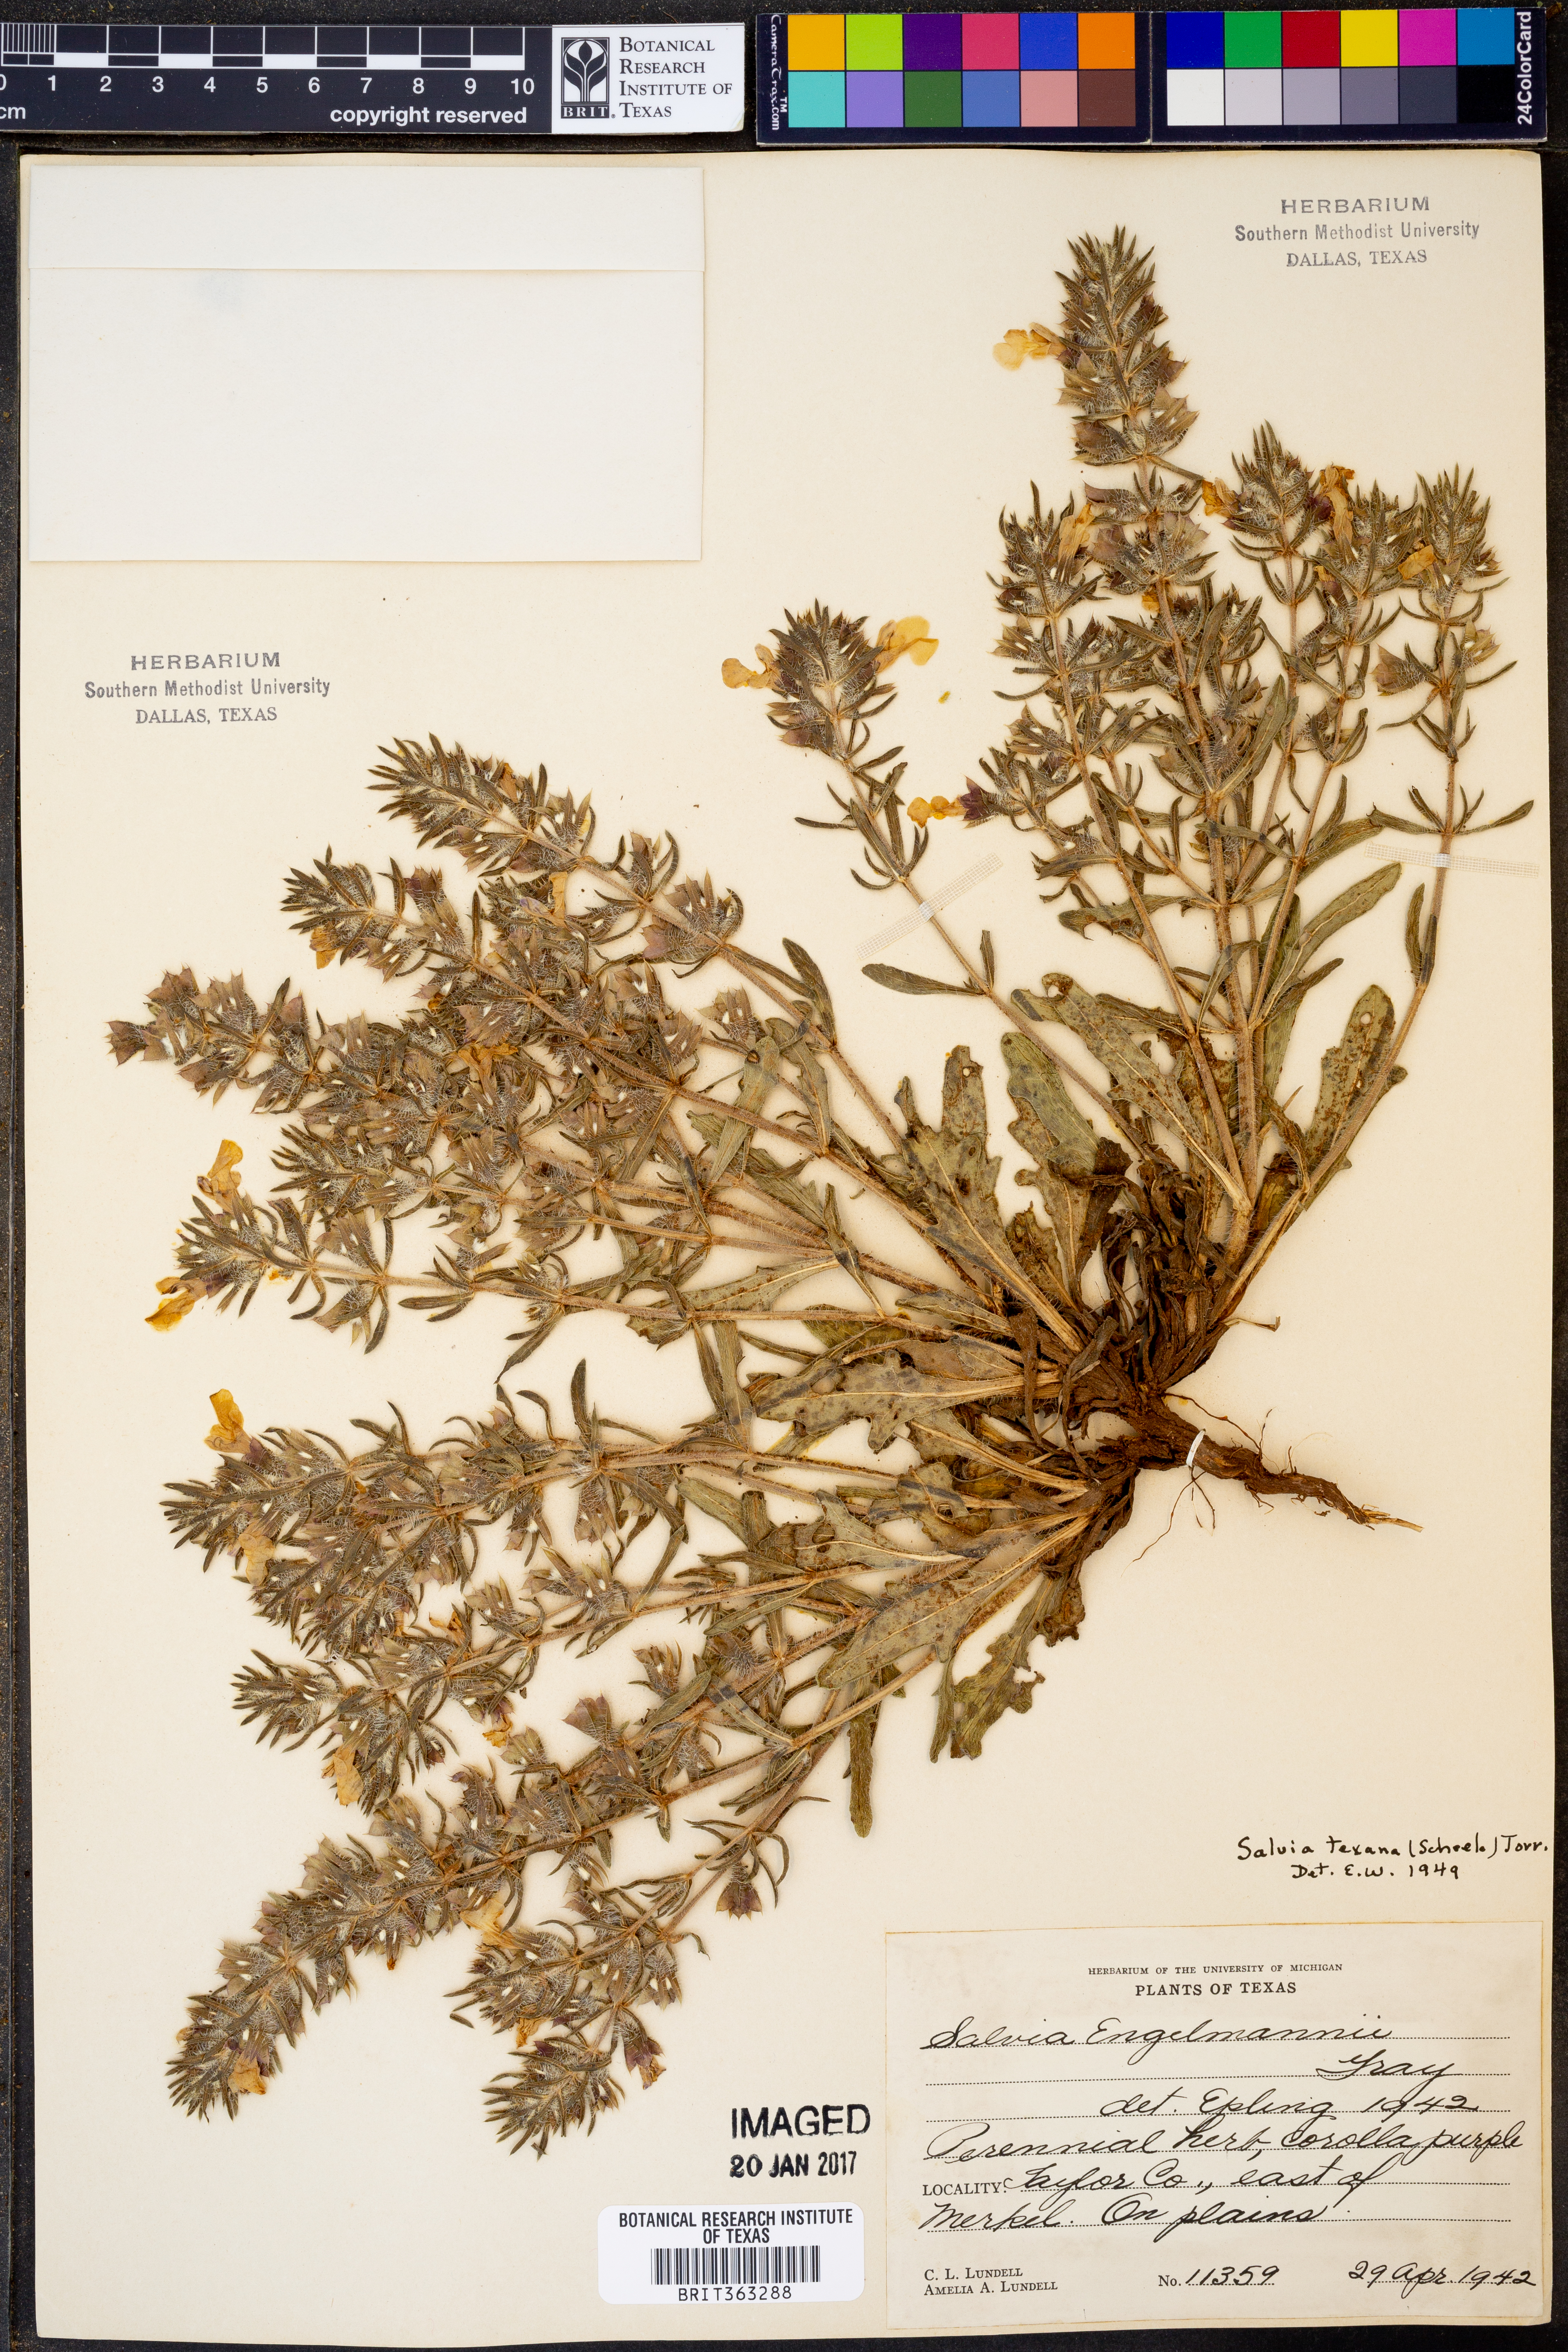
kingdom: Plantae
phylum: Tracheophyta
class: Magnoliopsida
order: Lamiales
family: Lamiaceae
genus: Salvia
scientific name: Salvia texana
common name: Texas sage
